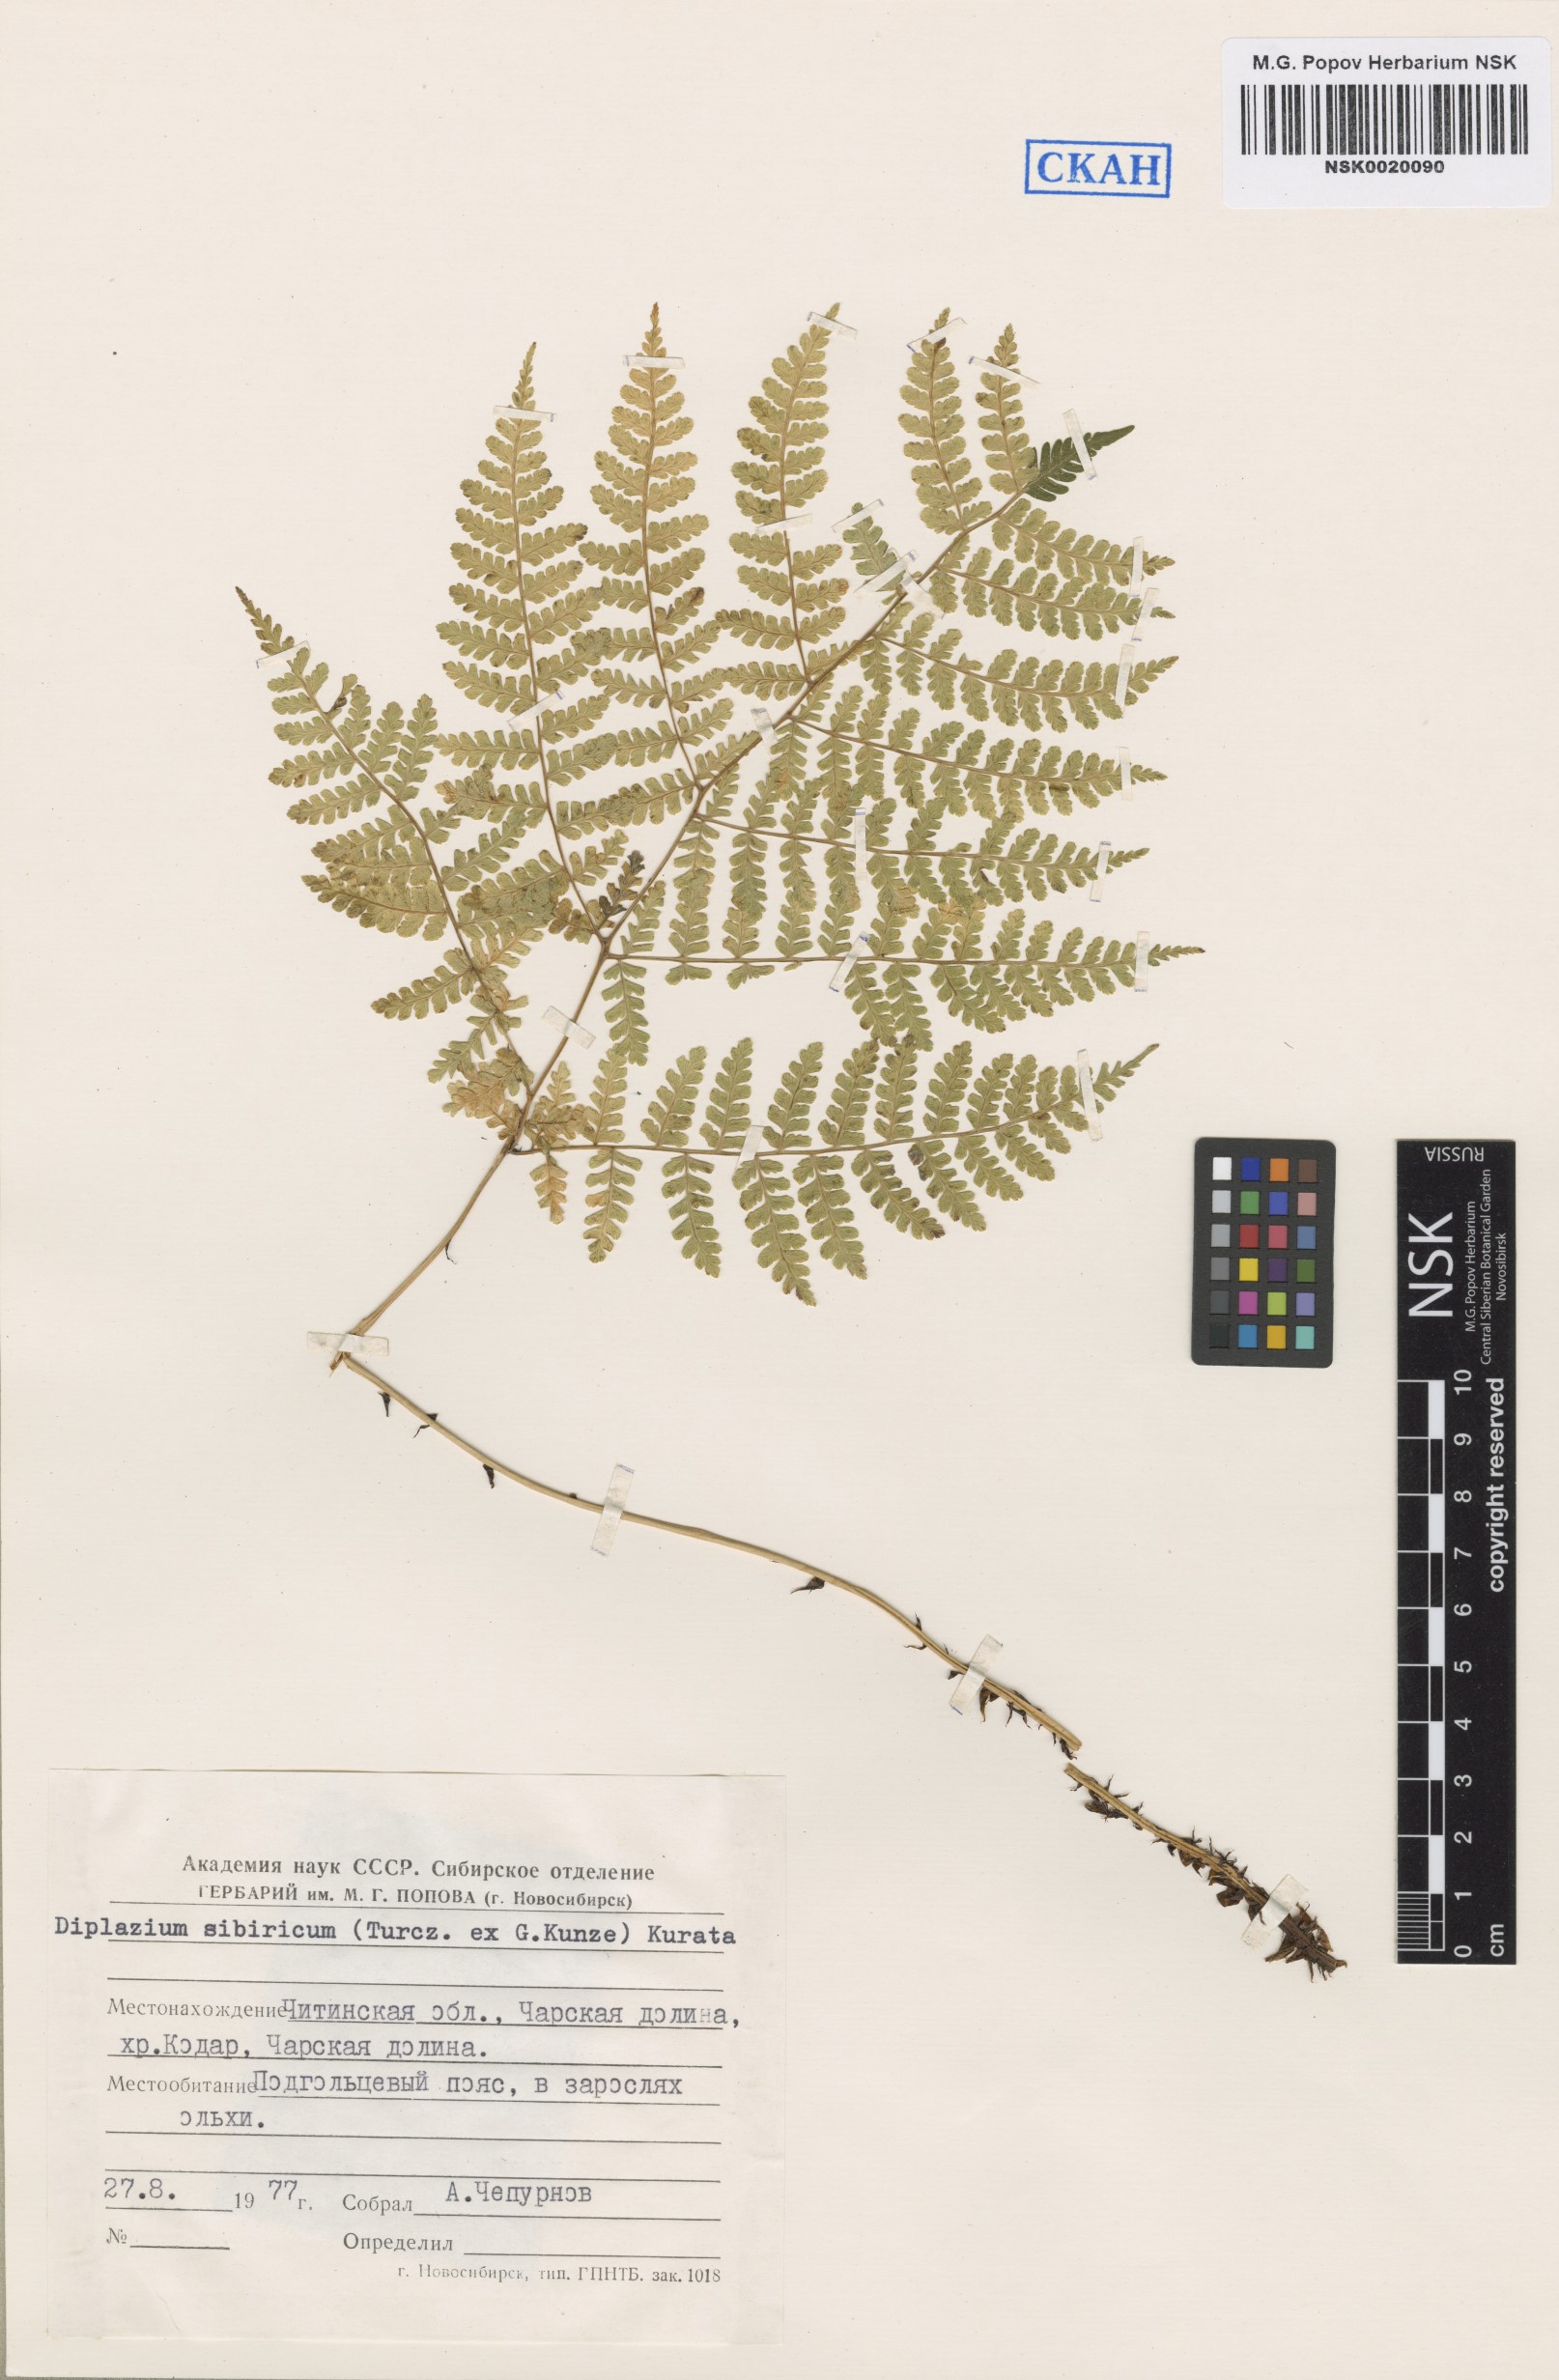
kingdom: Plantae
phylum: Tracheophyta
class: Polypodiopsida
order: Polypodiales
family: Athyriaceae
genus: Diplazium
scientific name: Diplazium sibiricum
